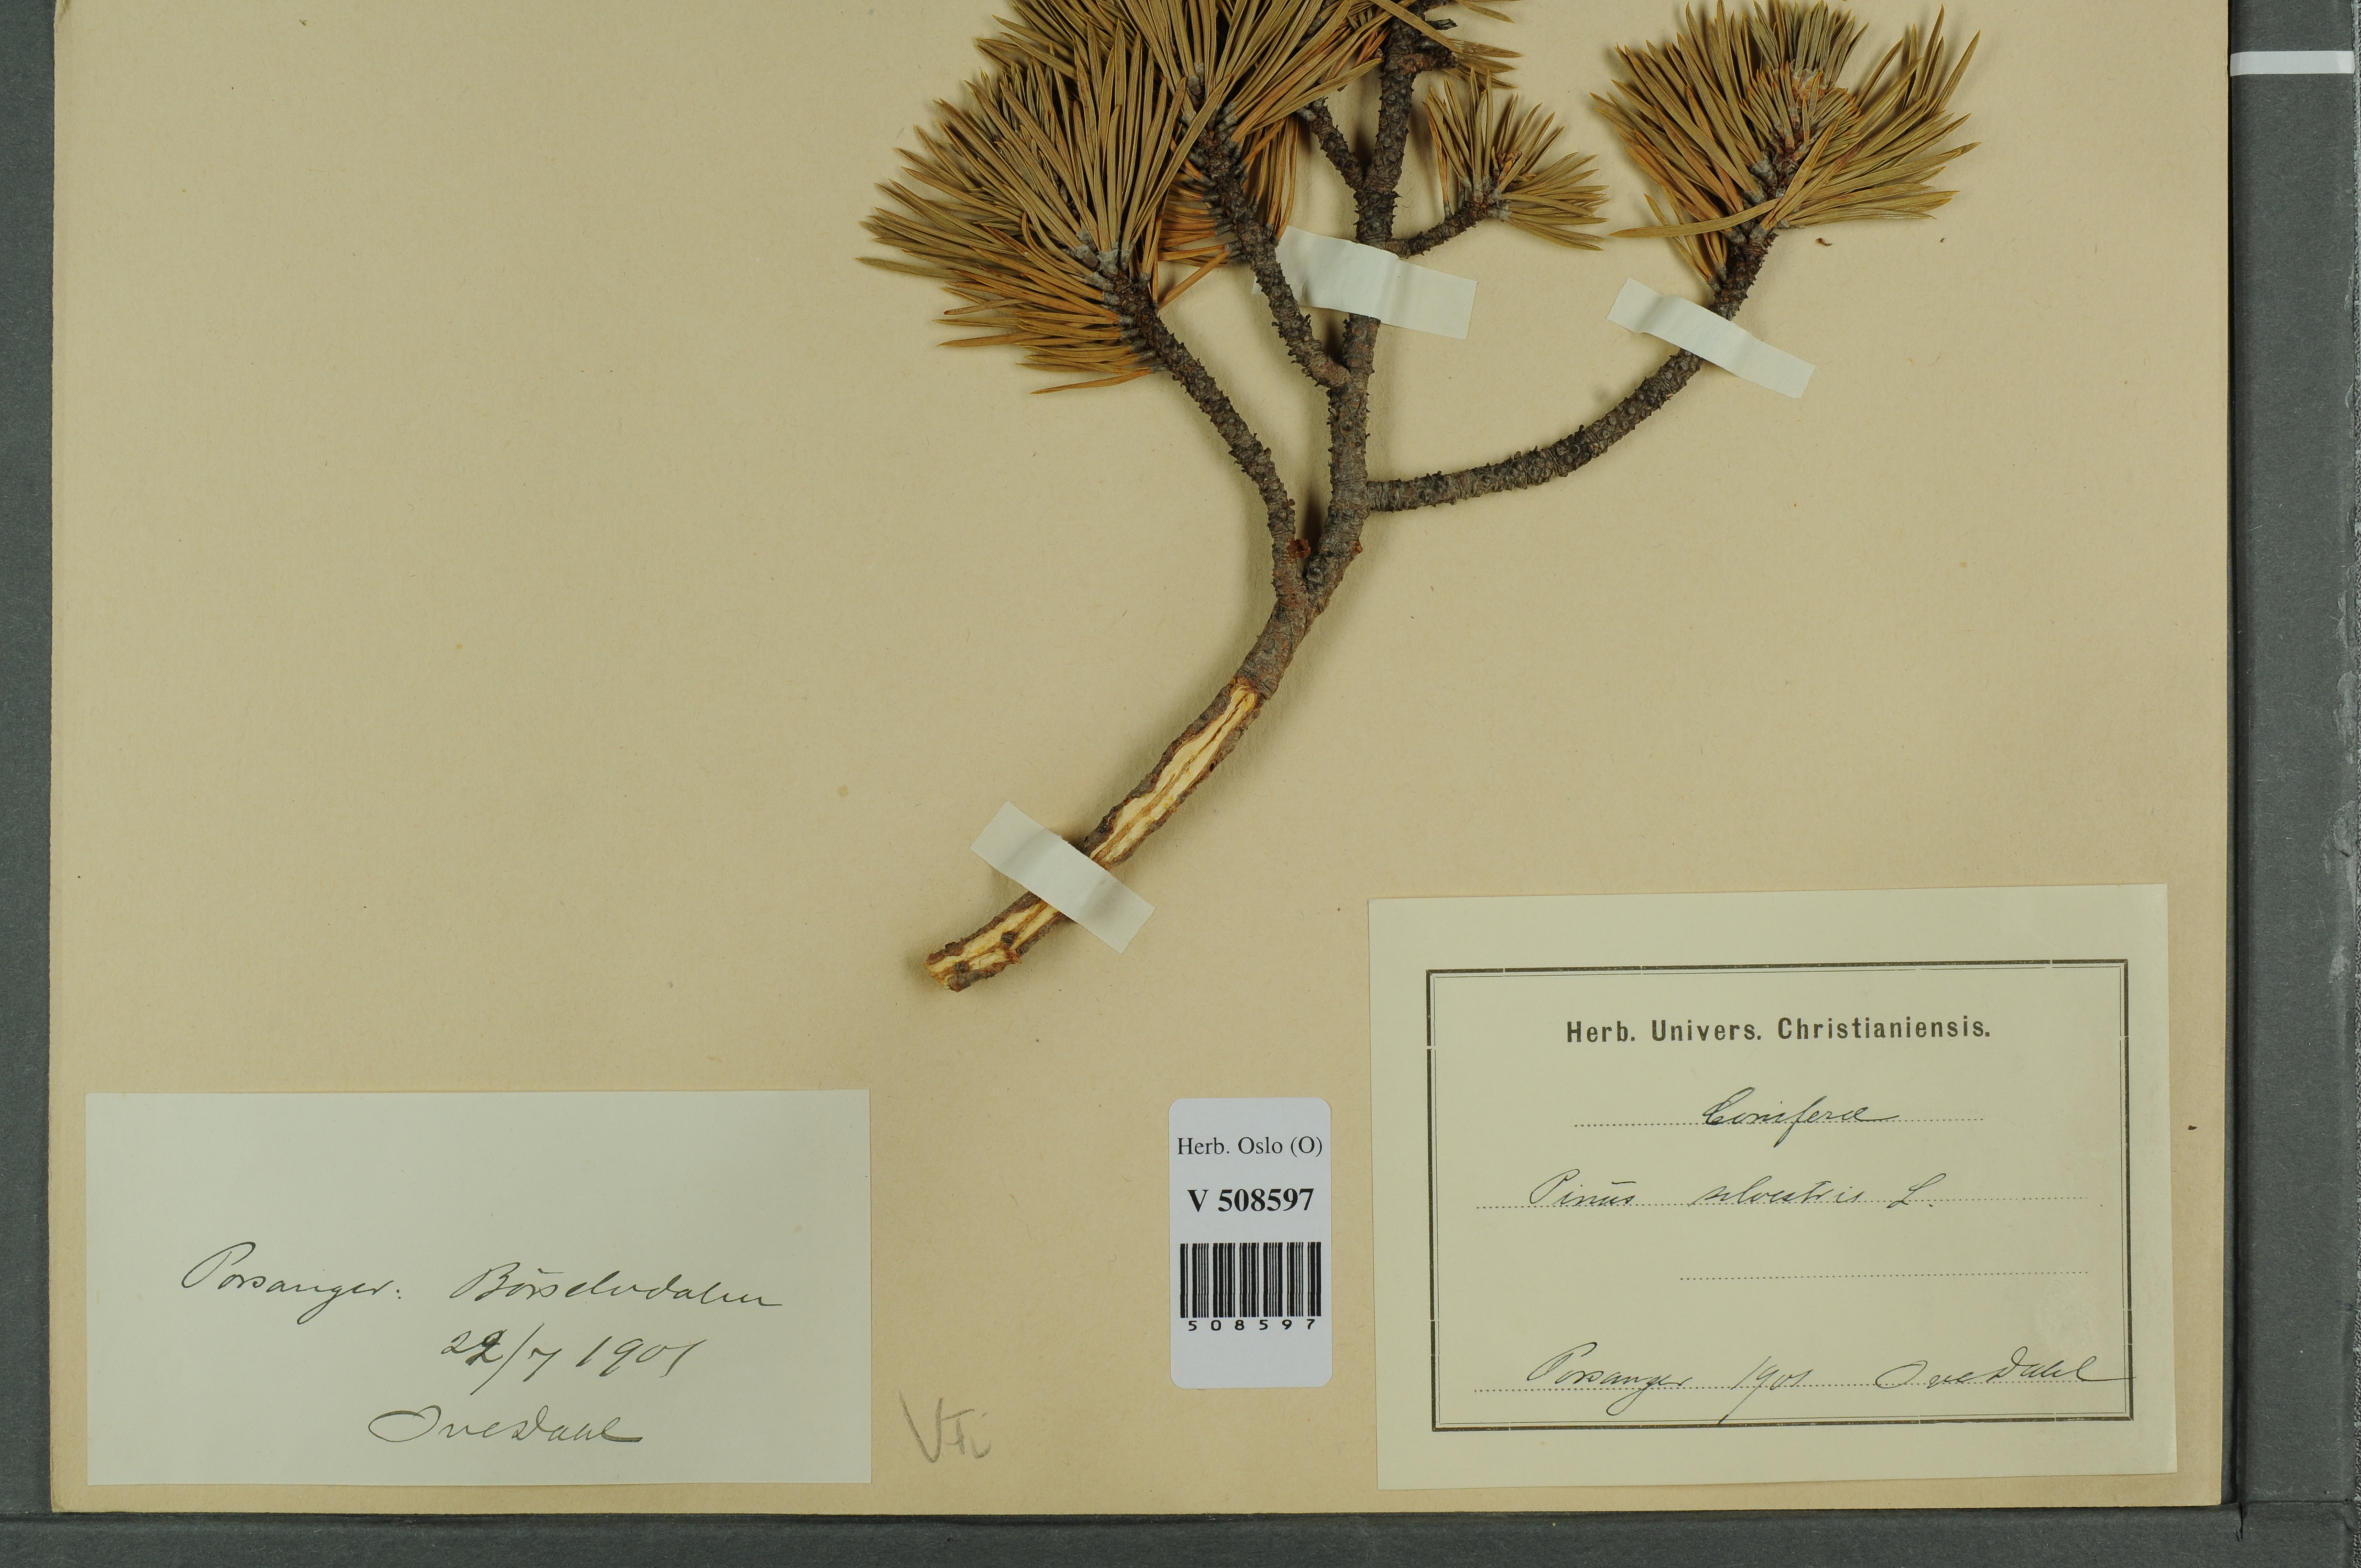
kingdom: Plantae
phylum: Tracheophyta
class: Pinopsida
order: Pinales
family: Pinaceae
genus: Pinus
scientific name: Pinus sylvestris
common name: Scots pine
